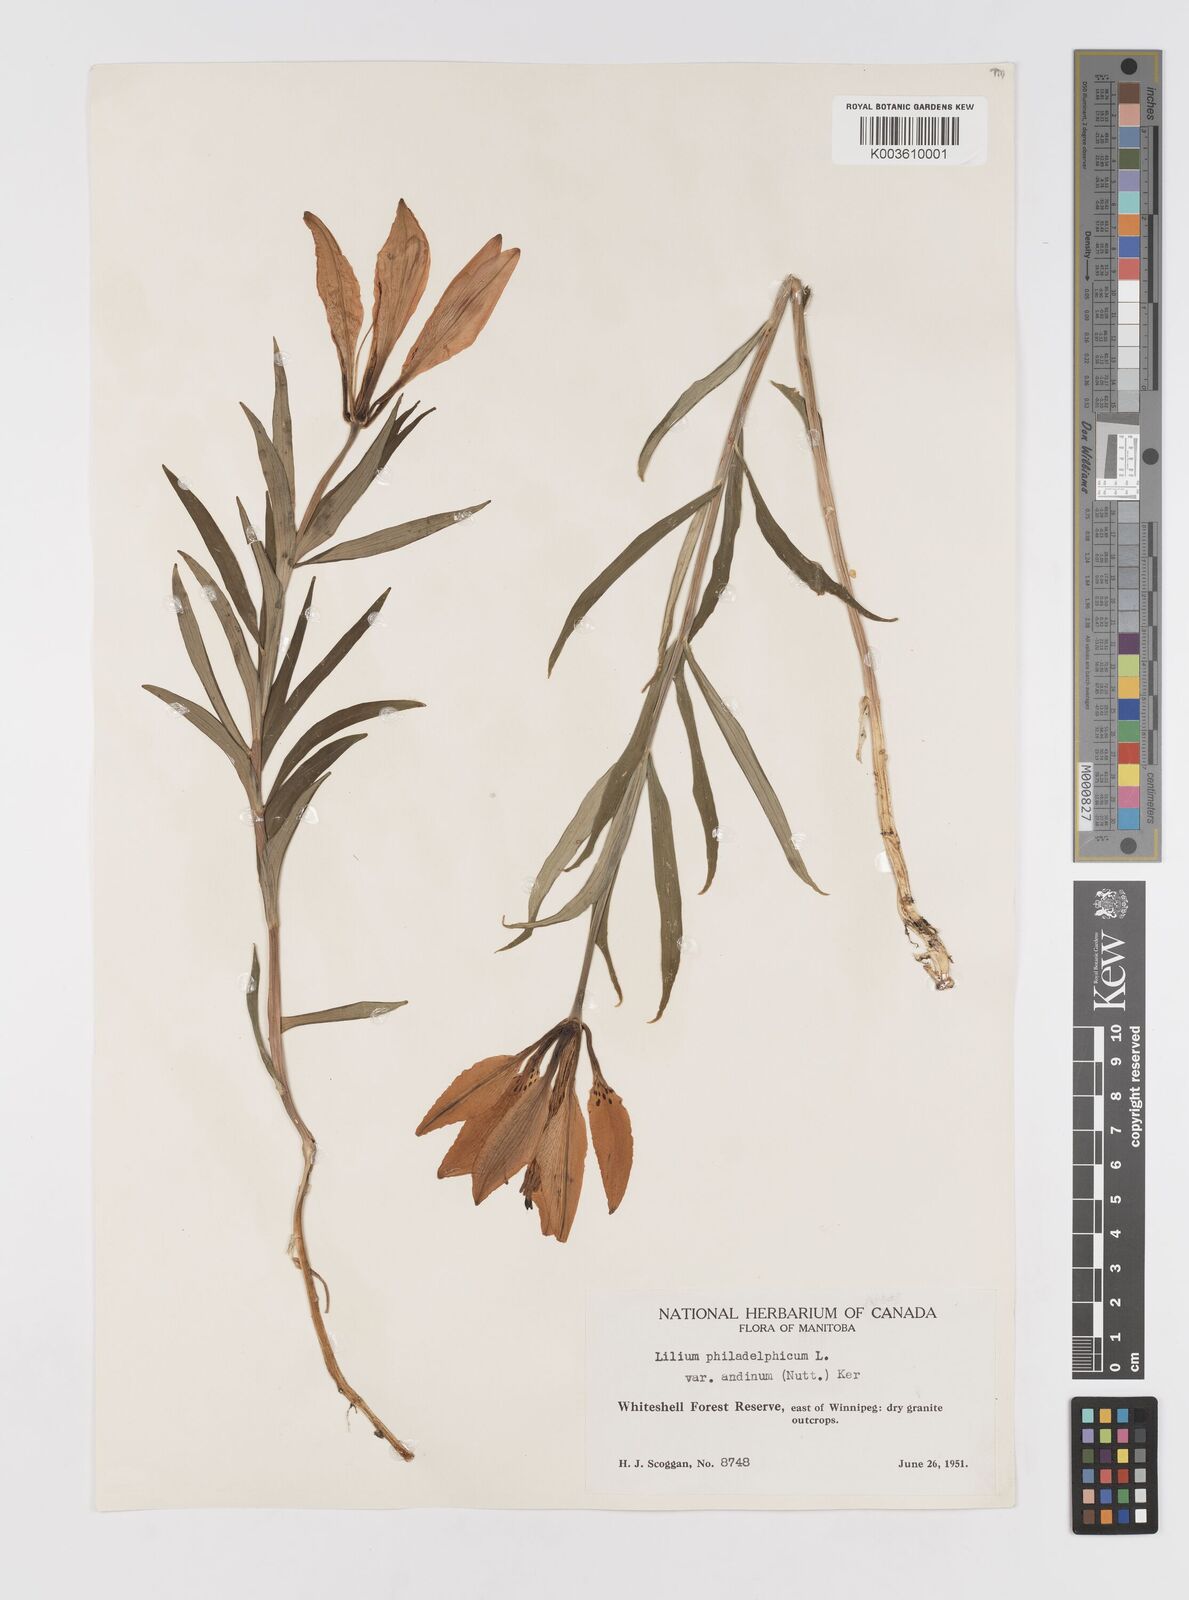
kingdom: Plantae
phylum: Tracheophyta
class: Liliopsida
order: Liliales
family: Liliaceae
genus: Lilium
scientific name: Lilium philadelphicum
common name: Red lily
